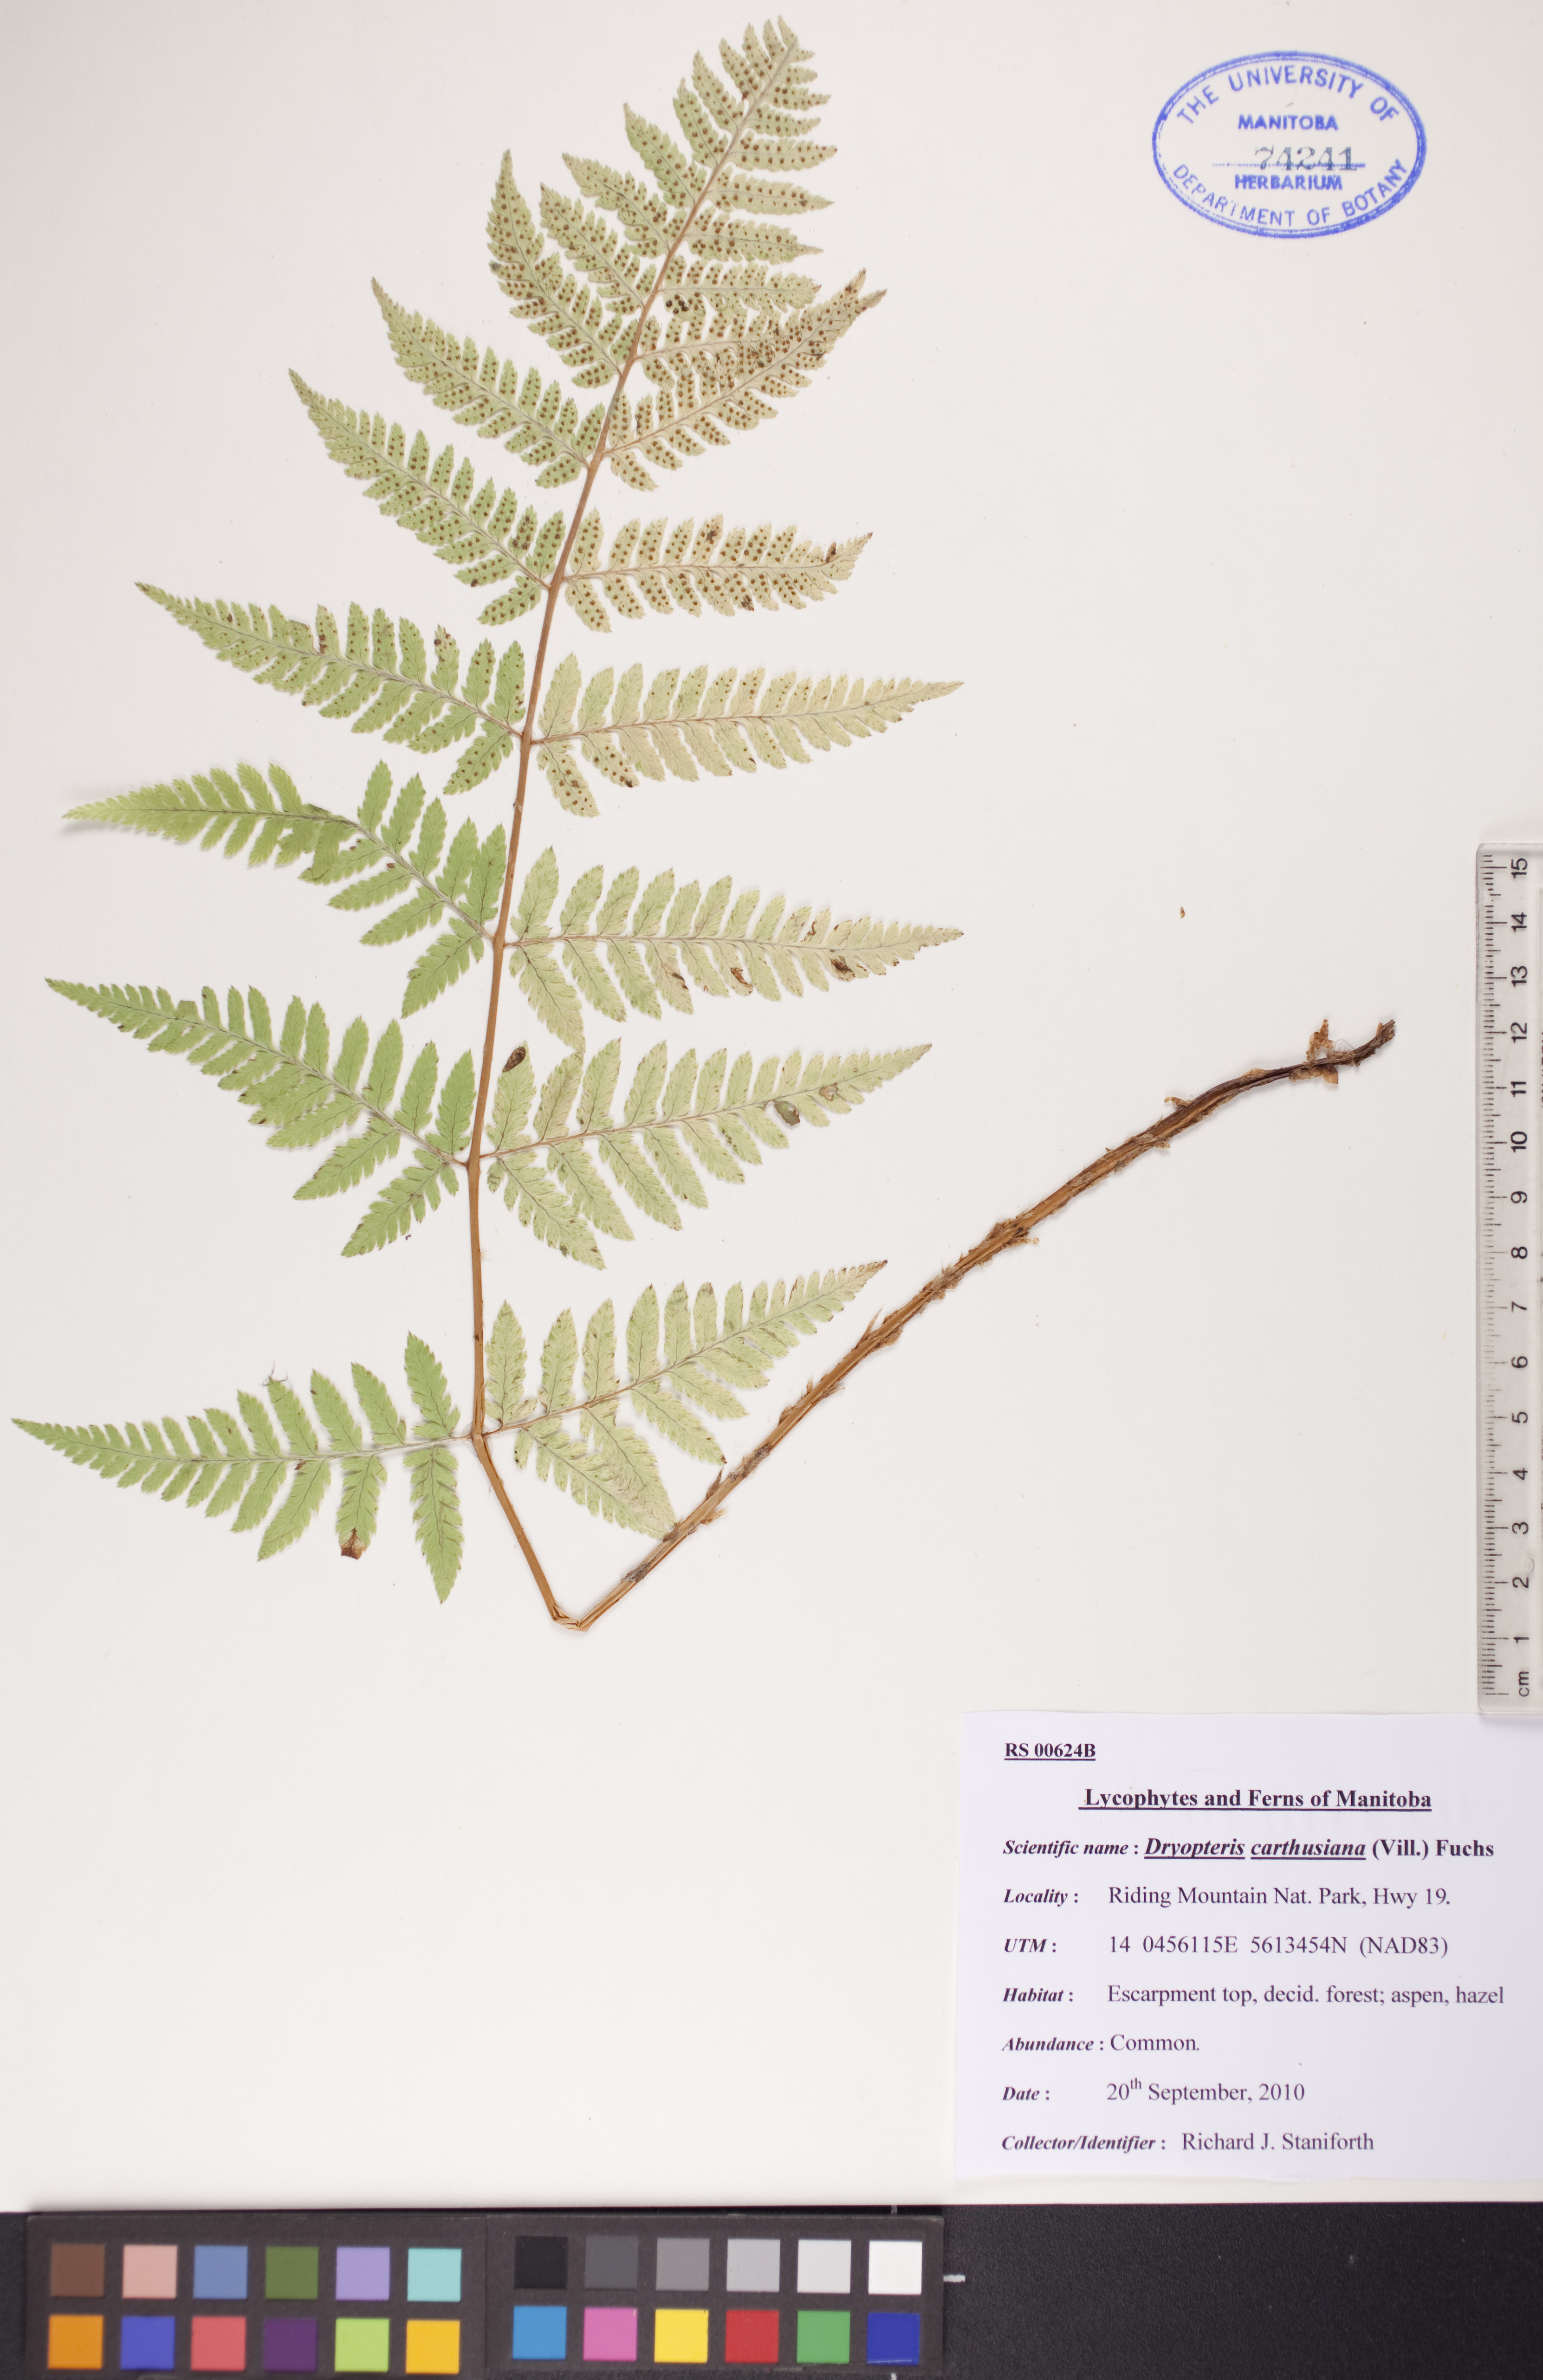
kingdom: Plantae
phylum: Tracheophyta
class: Polypodiopsida
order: Polypodiales
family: Dryopteridaceae
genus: Dryopteris
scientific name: Dryopteris carthusiana
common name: Narrow buckler-fern
